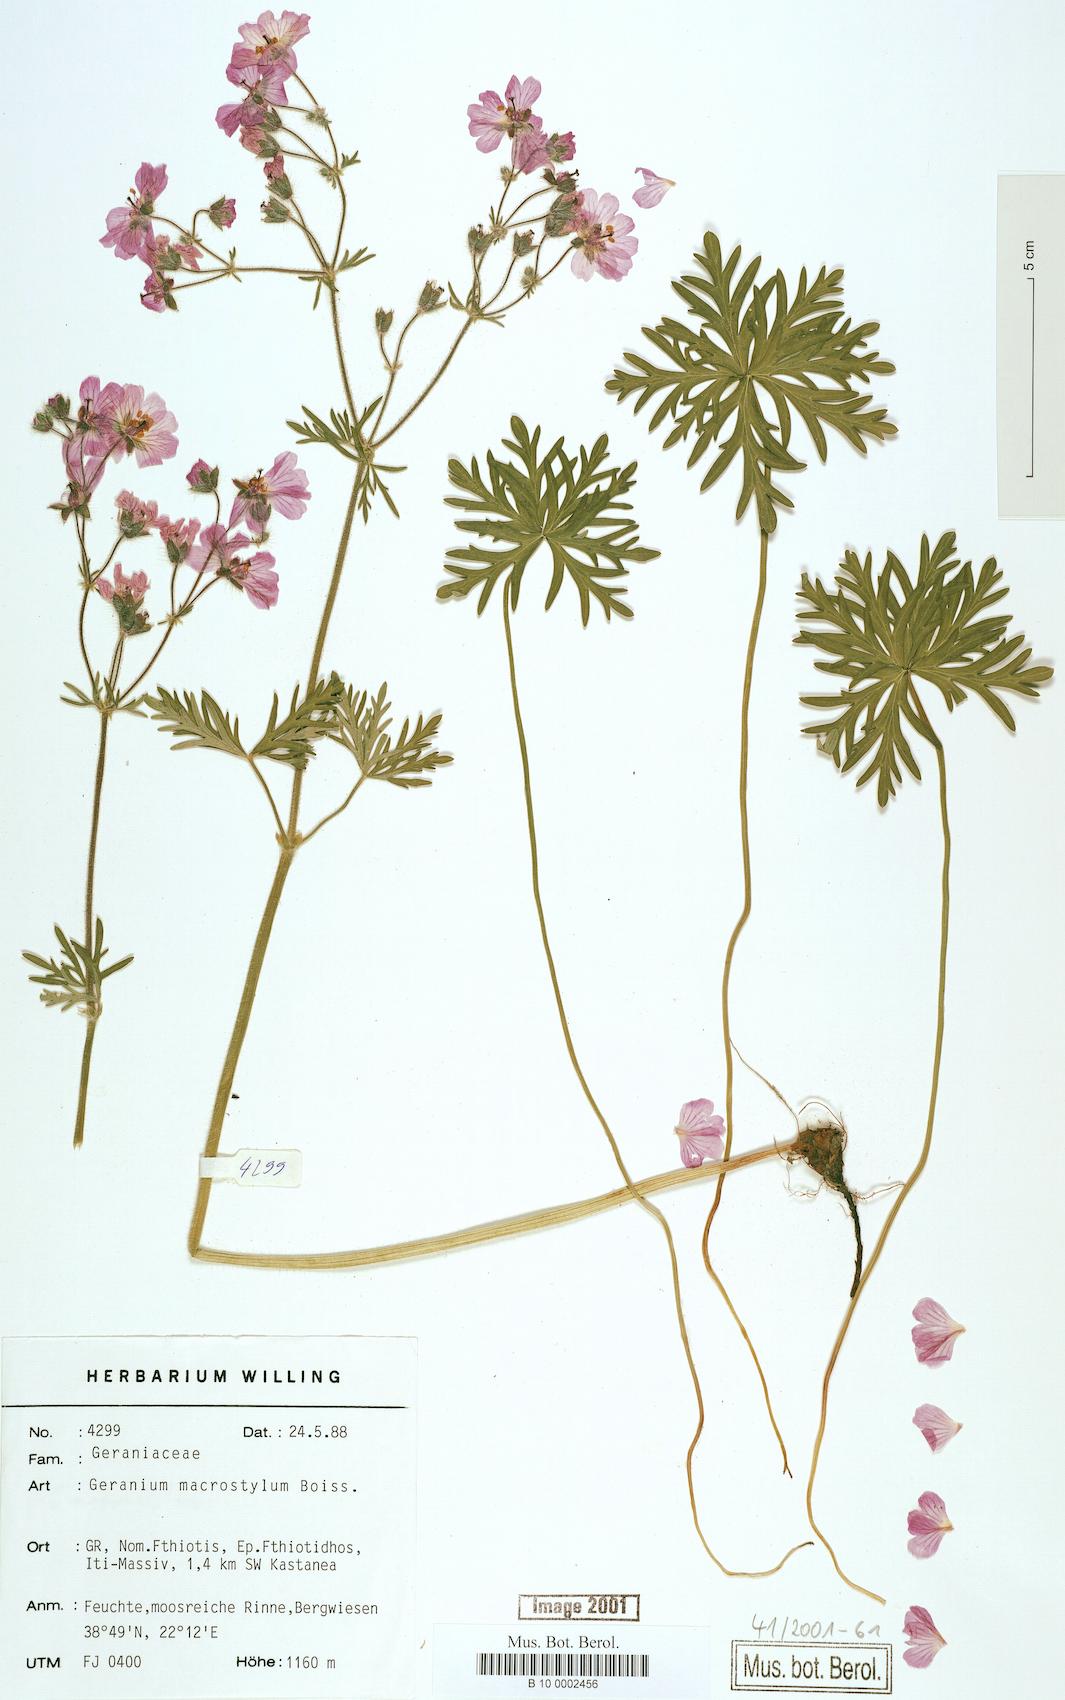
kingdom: Plantae
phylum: Tracheophyta
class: Magnoliopsida
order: Geraniales
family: Geraniaceae
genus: Geranium
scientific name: Geranium macrostylum
